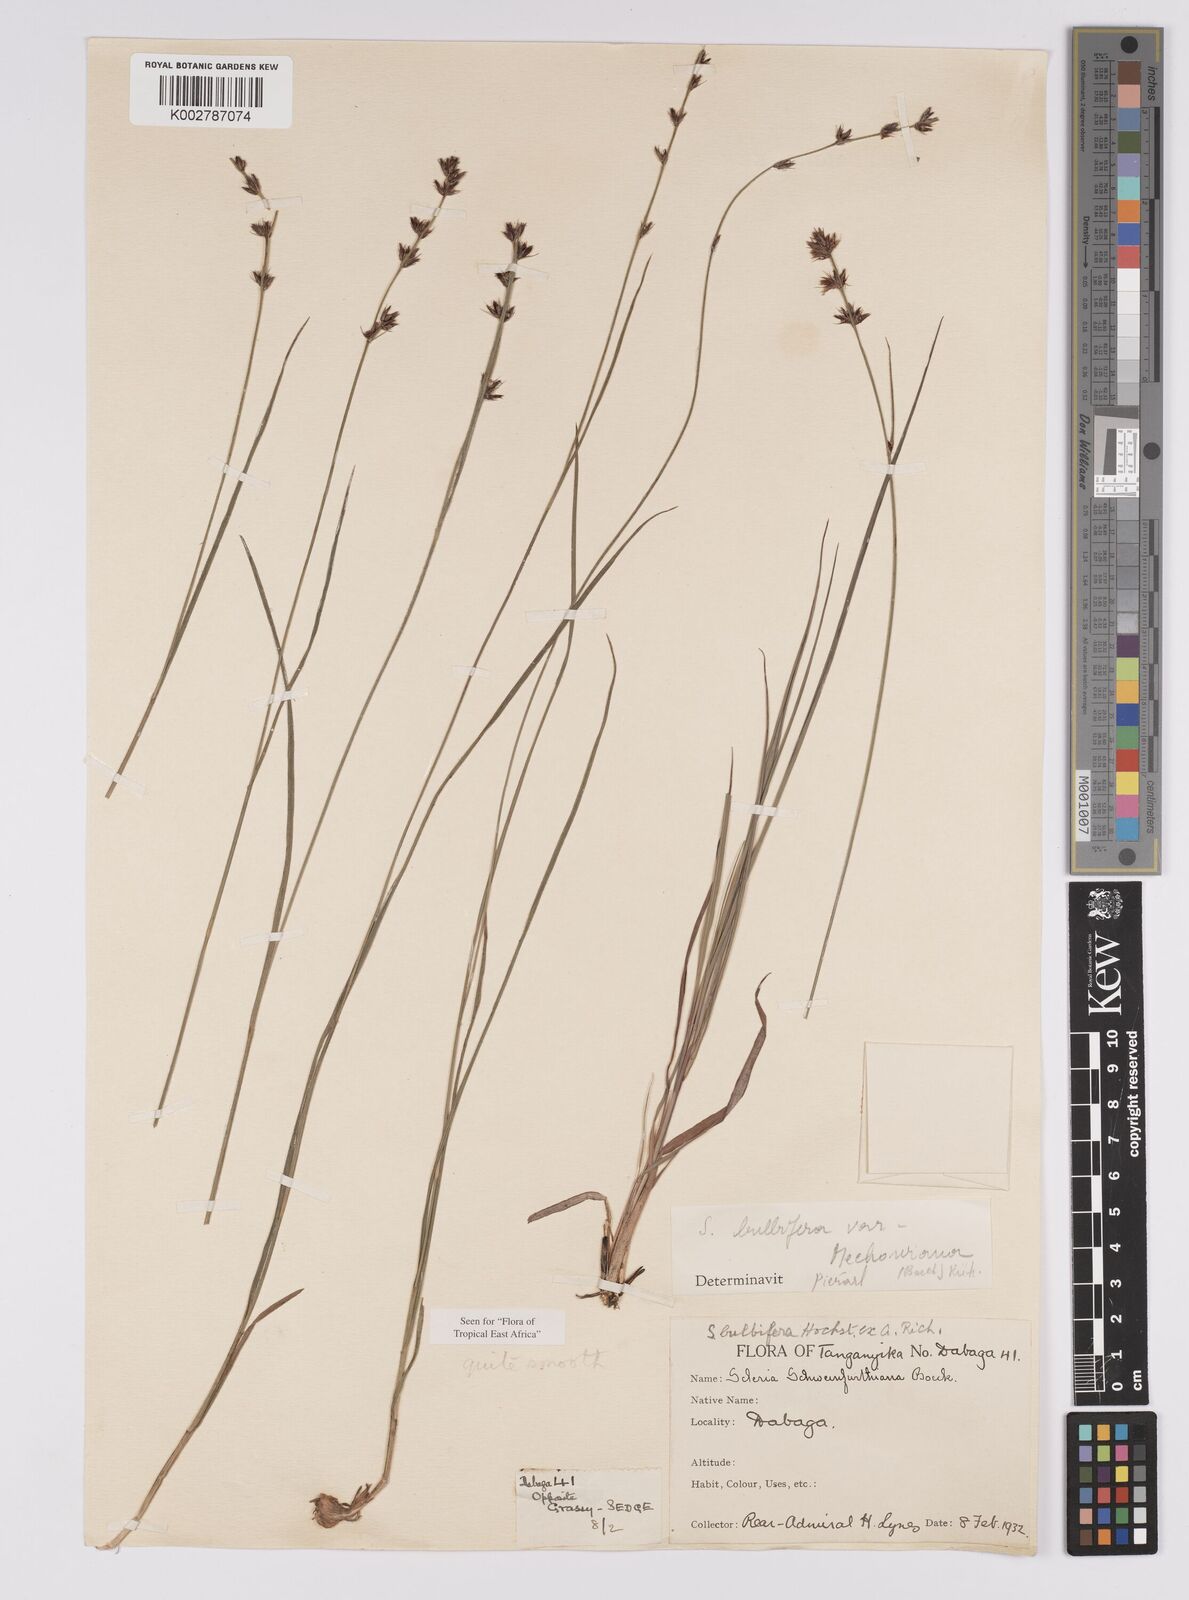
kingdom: Plantae
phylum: Tracheophyta
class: Liliopsida
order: Poales
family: Cyperaceae
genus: Scleria
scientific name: Scleria bulbifera
